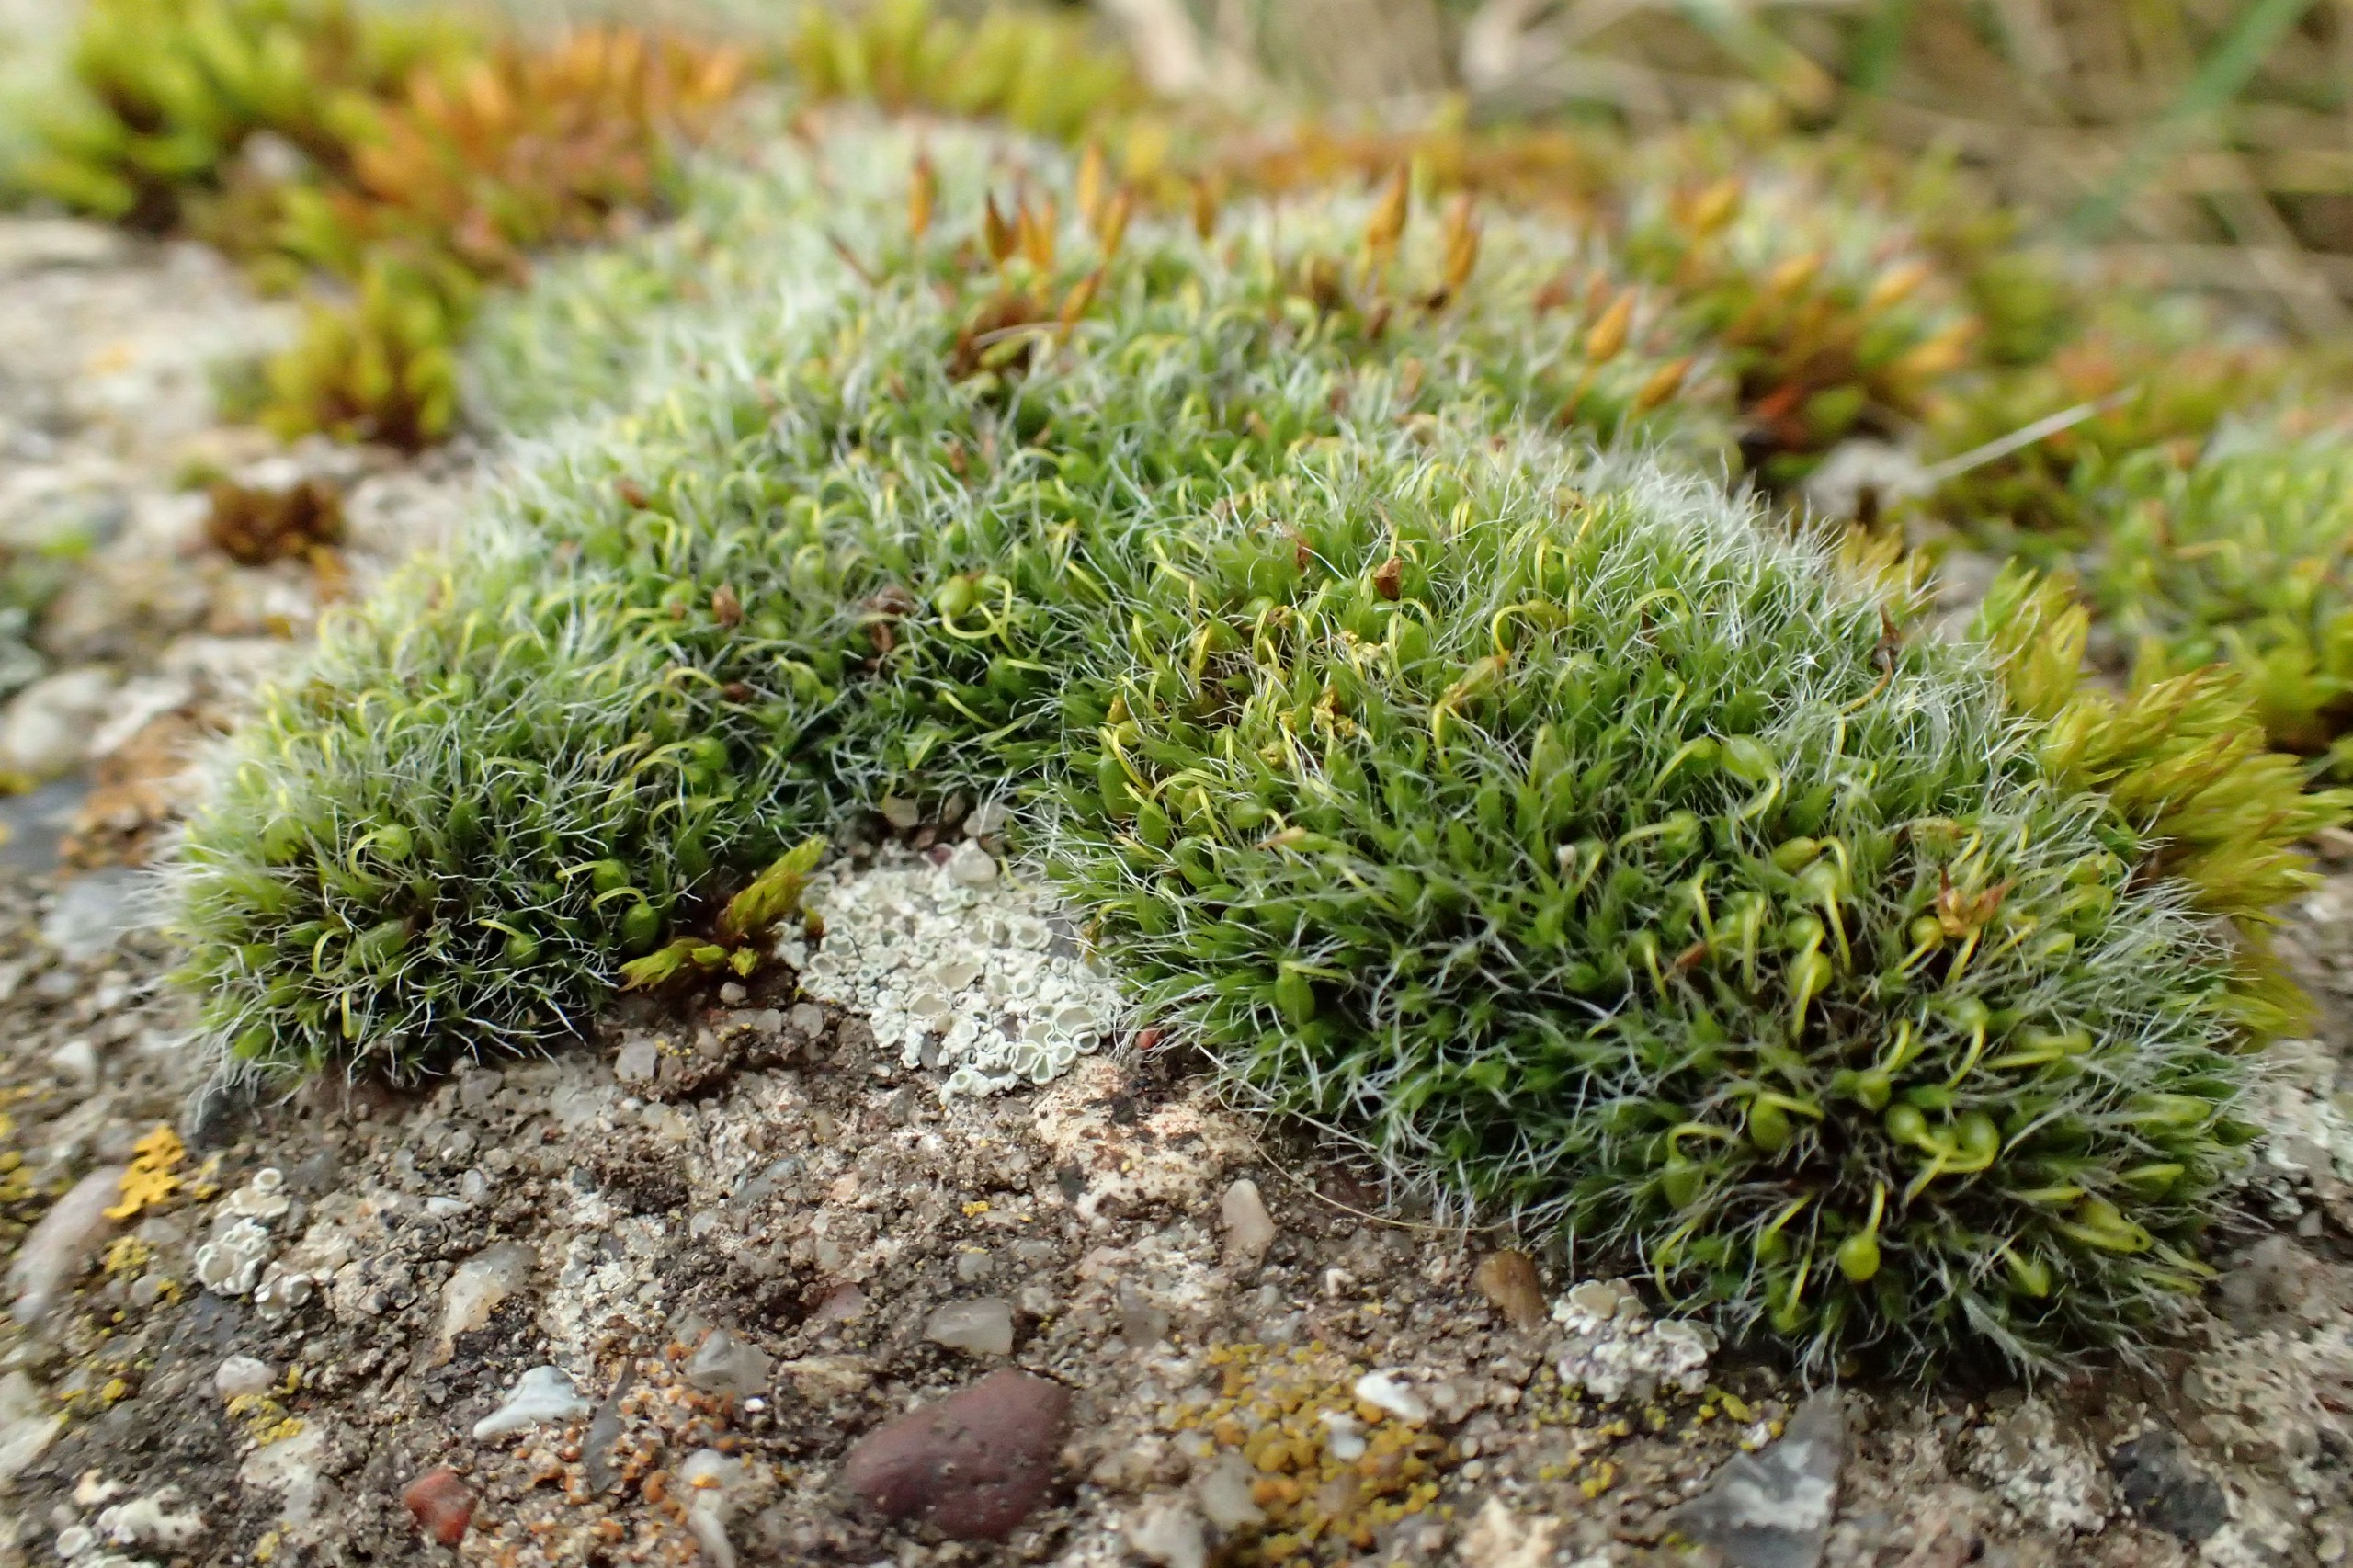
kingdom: Plantae
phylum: Bryophyta
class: Bryopsida
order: Grimmiales
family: Grimmiaceae
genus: Grimmia
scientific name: Grimmia pulvinata
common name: Pude-gråmos
